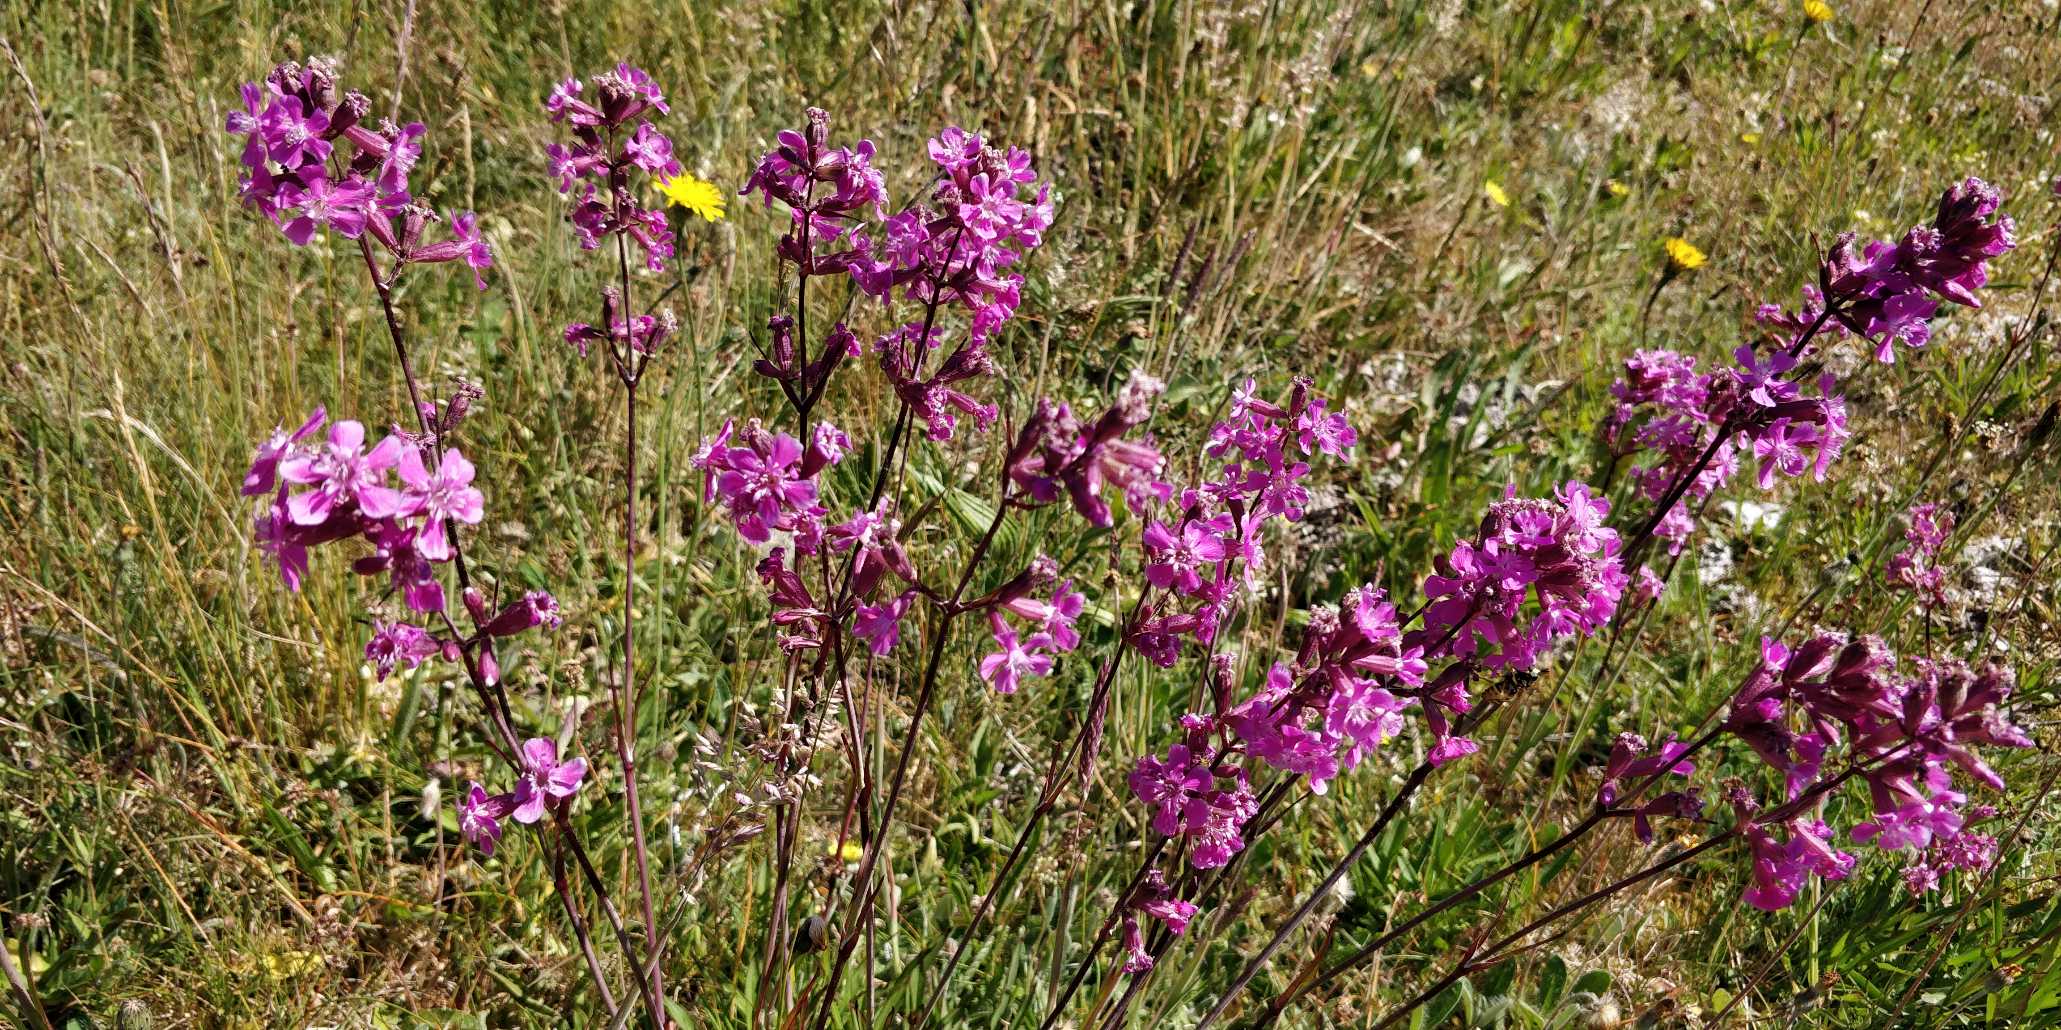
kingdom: Plantae
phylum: Tracheophyta
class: Magnoliopsida
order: Caryophyllales
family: Caryophyllaceae
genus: Viscaria
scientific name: Viscaria vulgaris
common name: Tjærenellike
